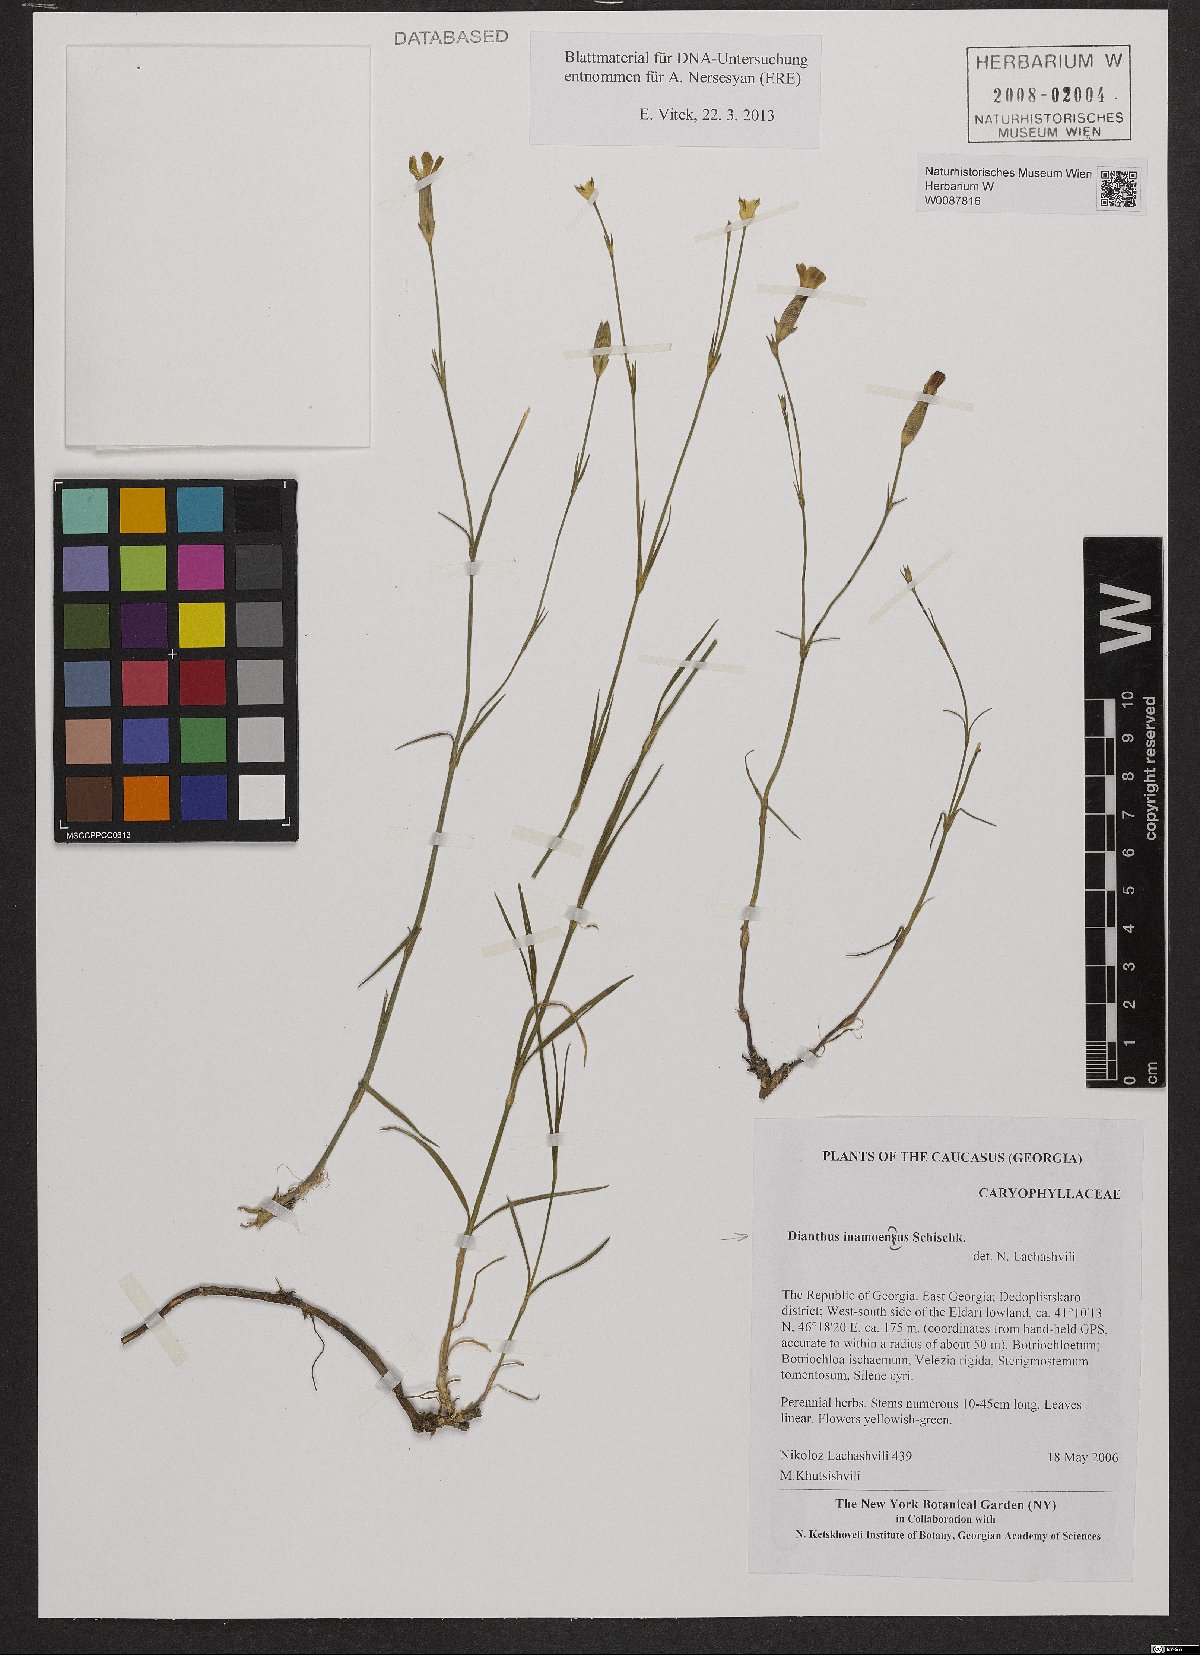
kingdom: Plantae
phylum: Tracheophyta
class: Magnoliopsida
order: Caryophyllales
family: Caryophyllaceae
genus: Dianthus
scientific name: Dianthus inamoenus
